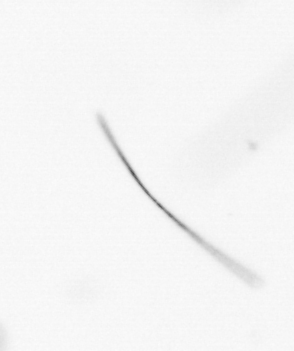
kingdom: Chromista
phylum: Ochrophyta
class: Bacillariophyceae
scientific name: Bacillariophyceae
